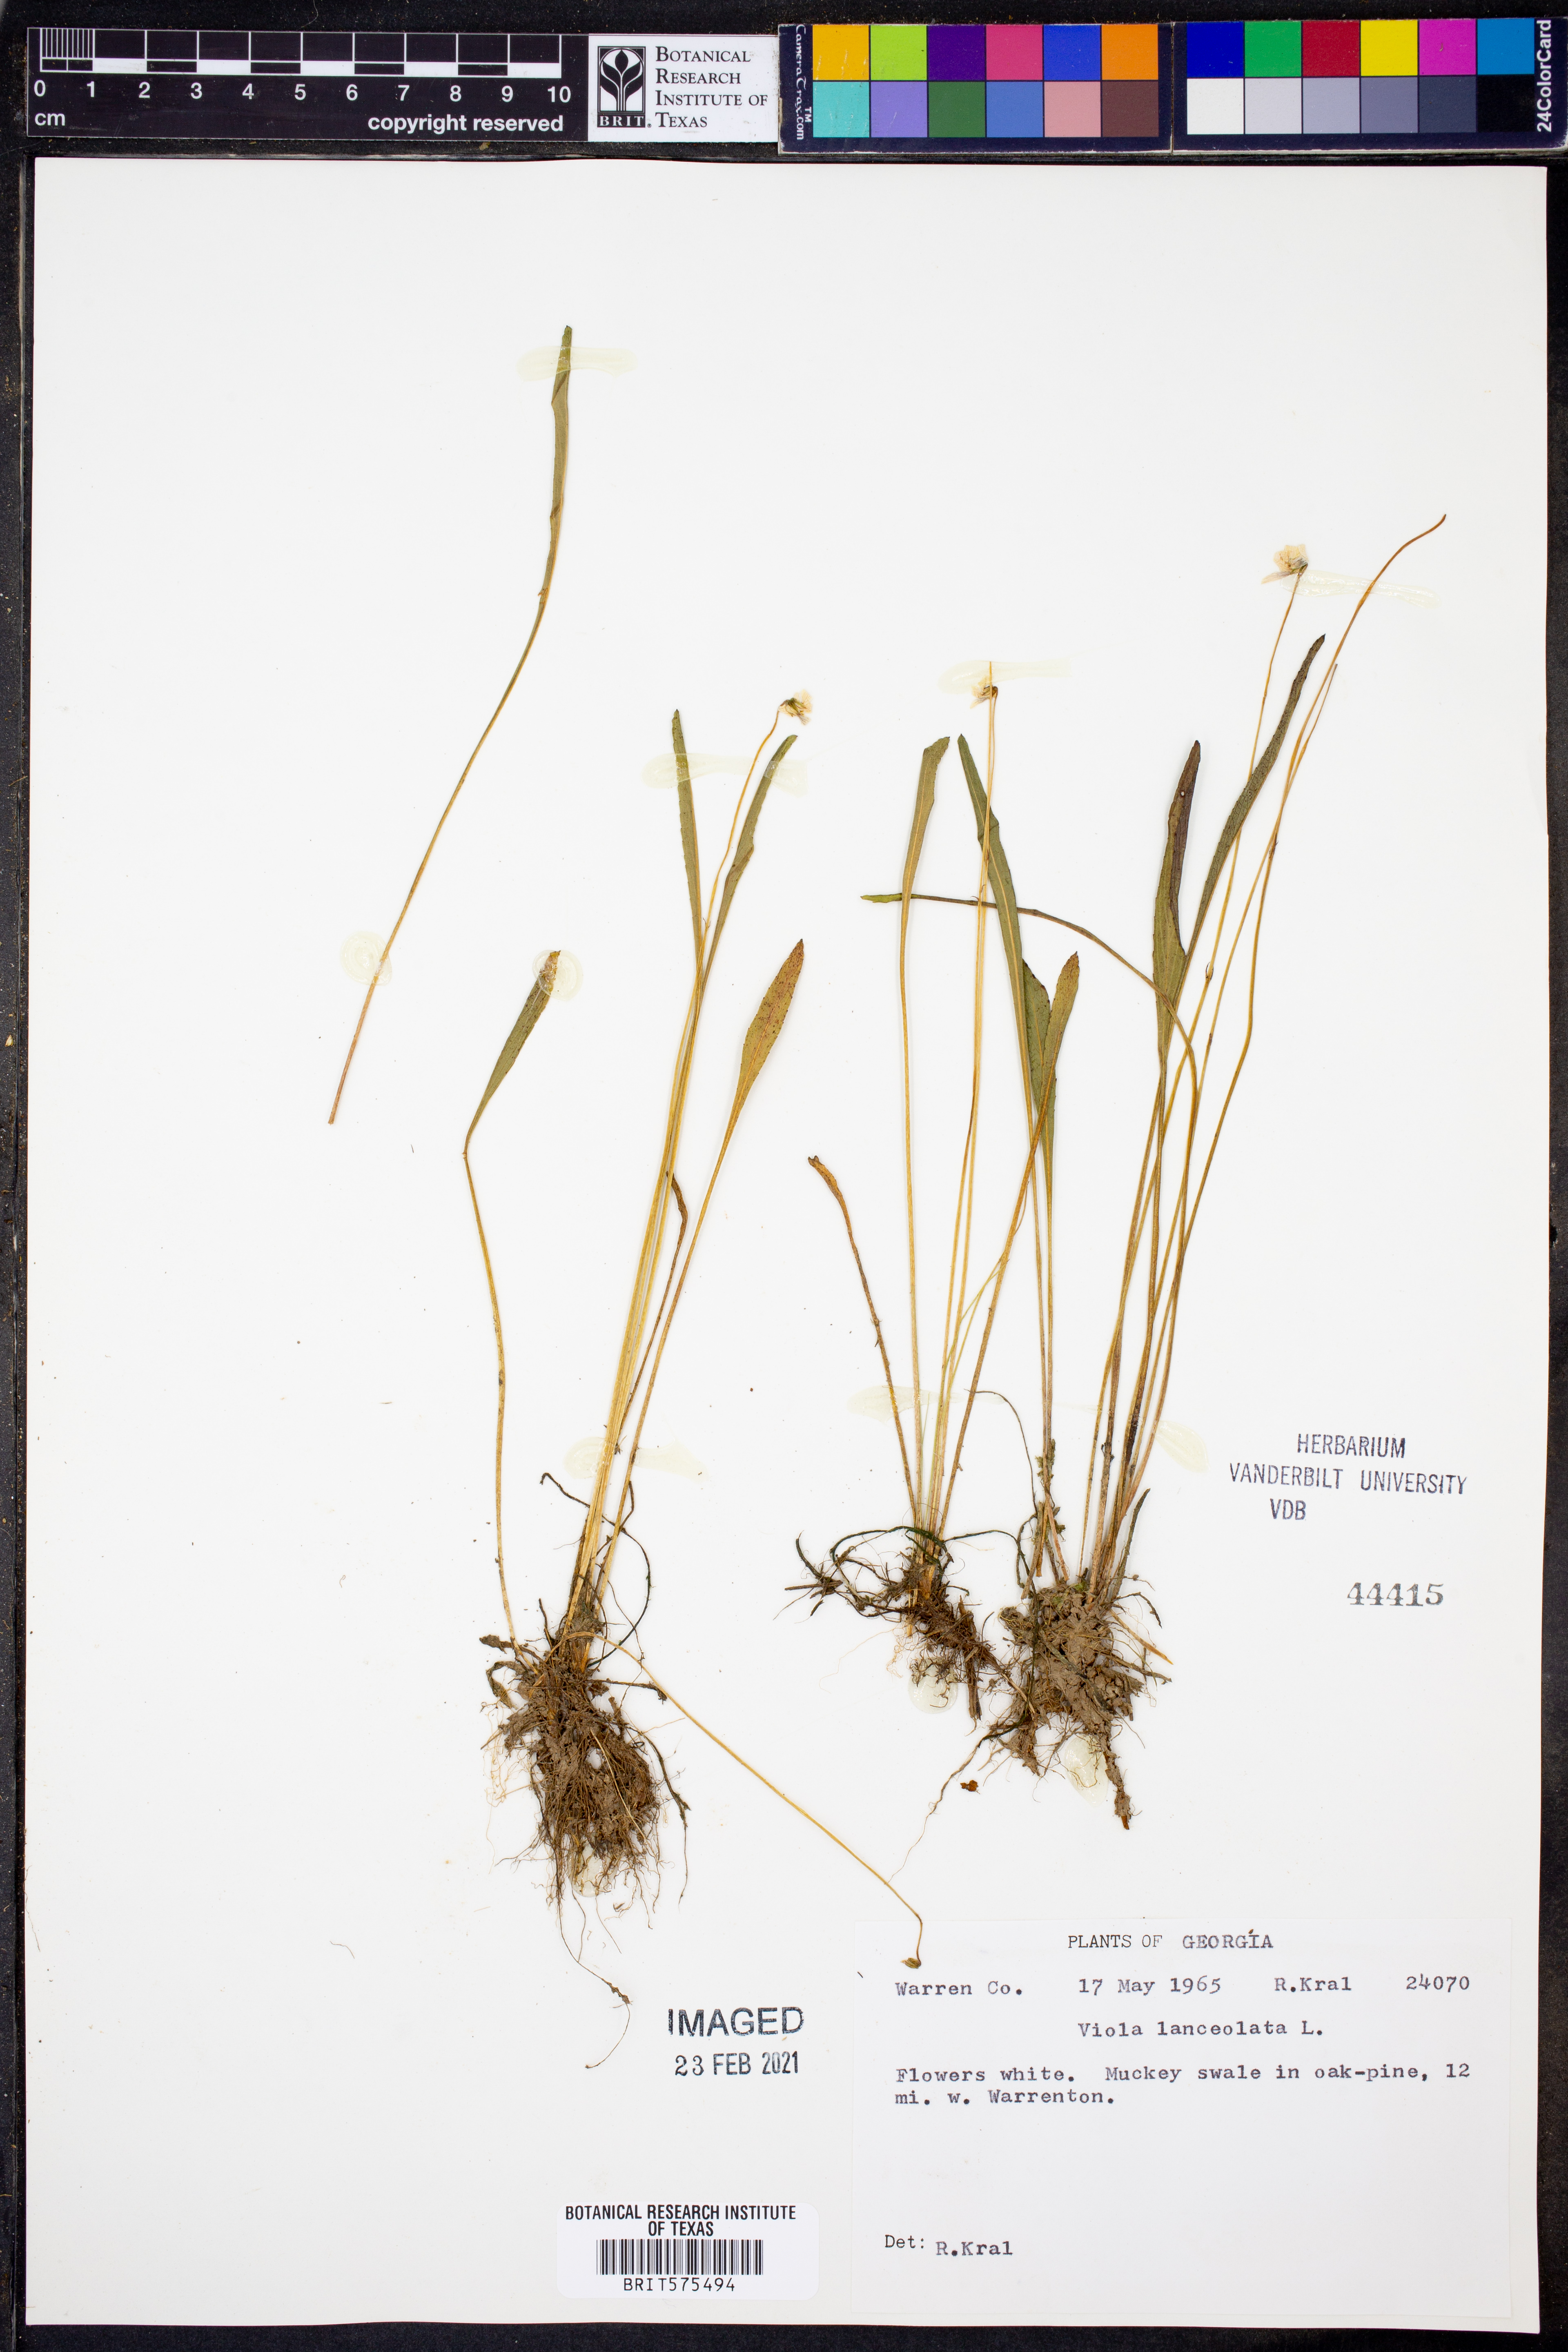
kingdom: Plantae
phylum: Tracheophyta
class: Magnoliopsida
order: Malpighiales
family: Violaceae
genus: Viola
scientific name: Viola lanceolata
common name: Bog white violet
